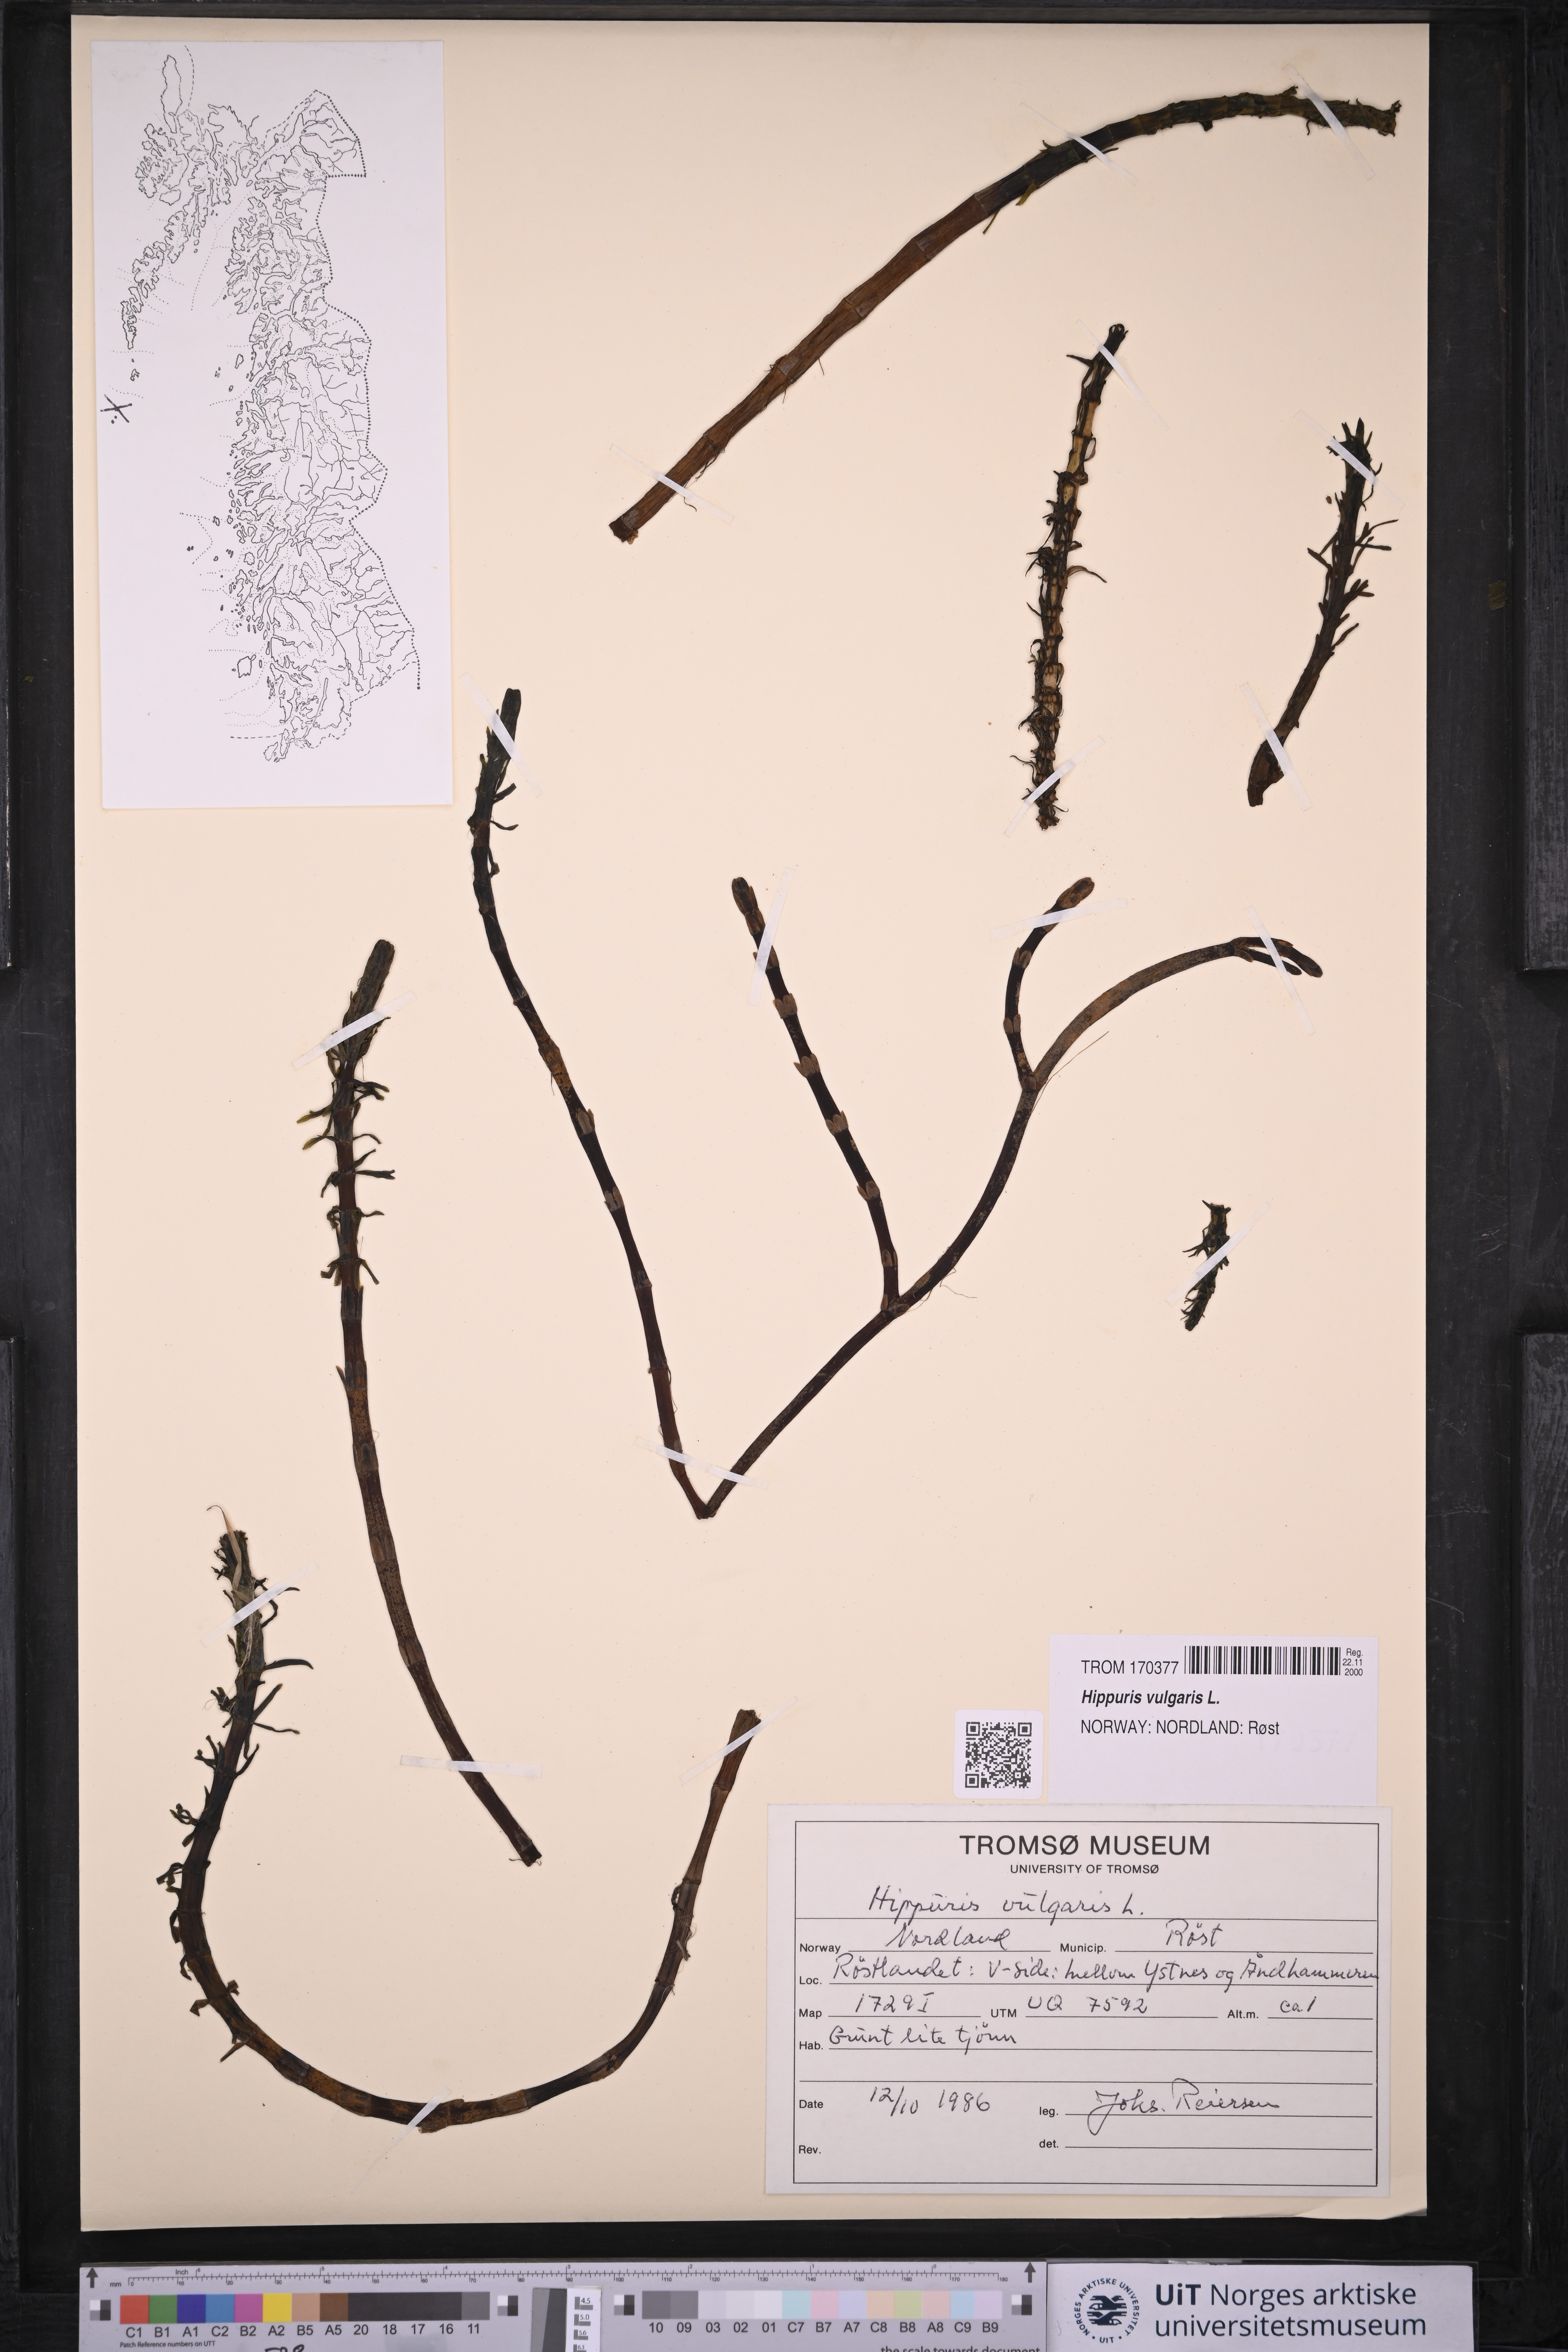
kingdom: Plantae
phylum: Tracheophyta
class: Magnoliopsida
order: Lamiales
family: Plantaginaceae
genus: Hippuris
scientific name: Hippuris vulgaris
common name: Mare's-tail
